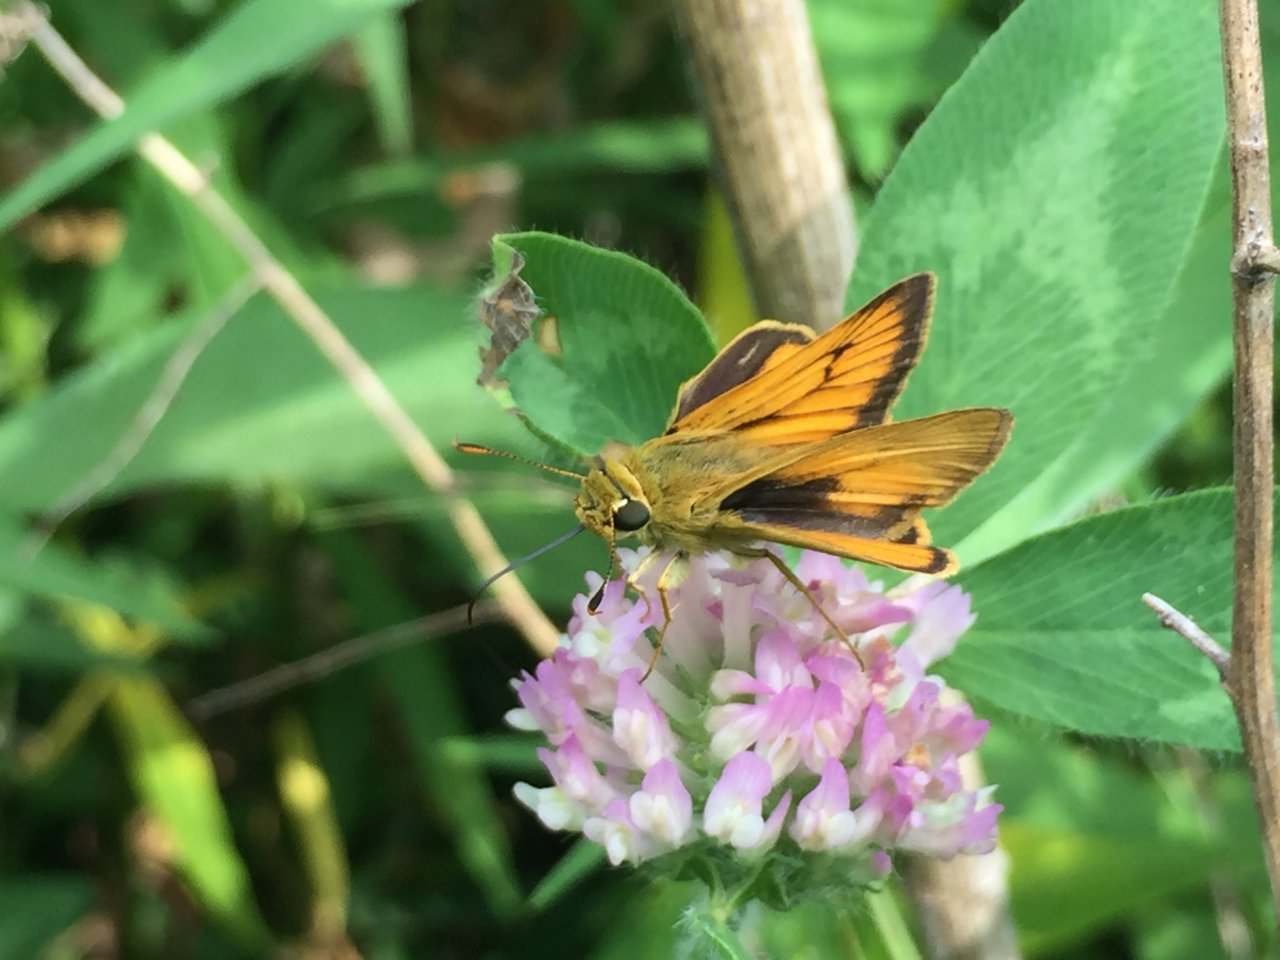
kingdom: Animalia
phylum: Arthropoda
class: Insecta
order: Lepidoptera
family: Hesperiidae
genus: Atrytone
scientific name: Atrytone delaware
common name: Delaware Skipper
